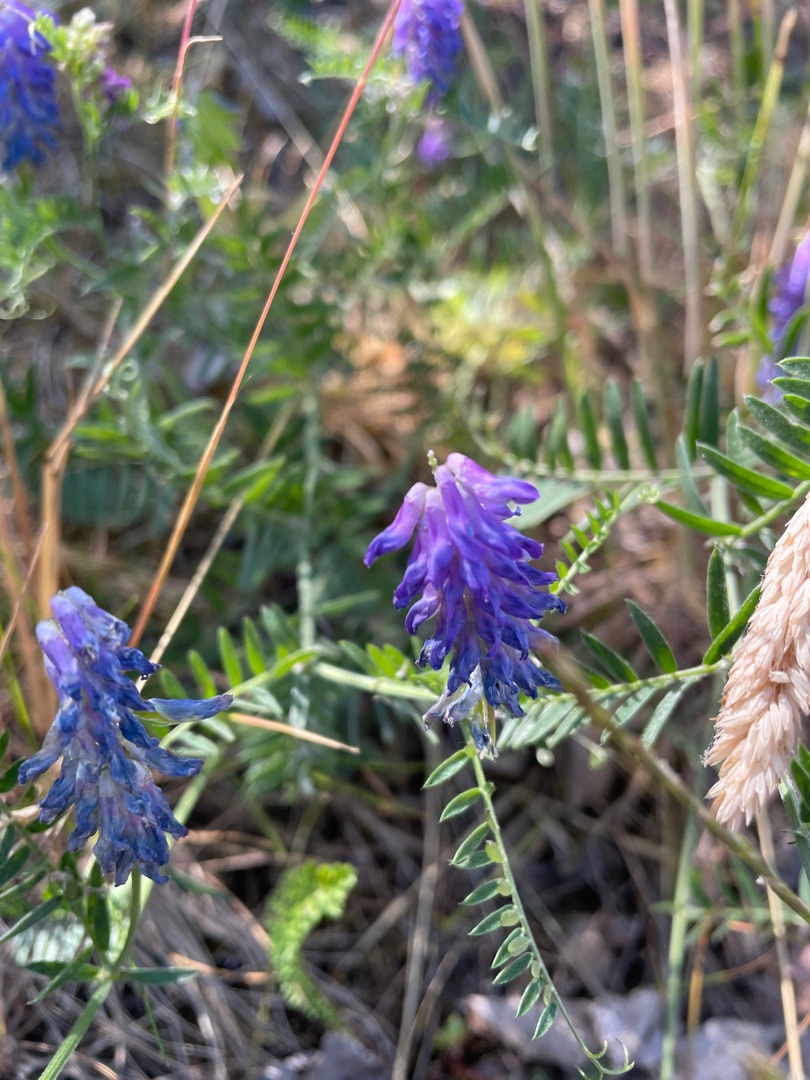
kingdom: Plantae
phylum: Tracheophyta
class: Magnoliopsida
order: Fabales
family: Fabaceae
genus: Vicia
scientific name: Vicia cracca
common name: Muse-vikke
